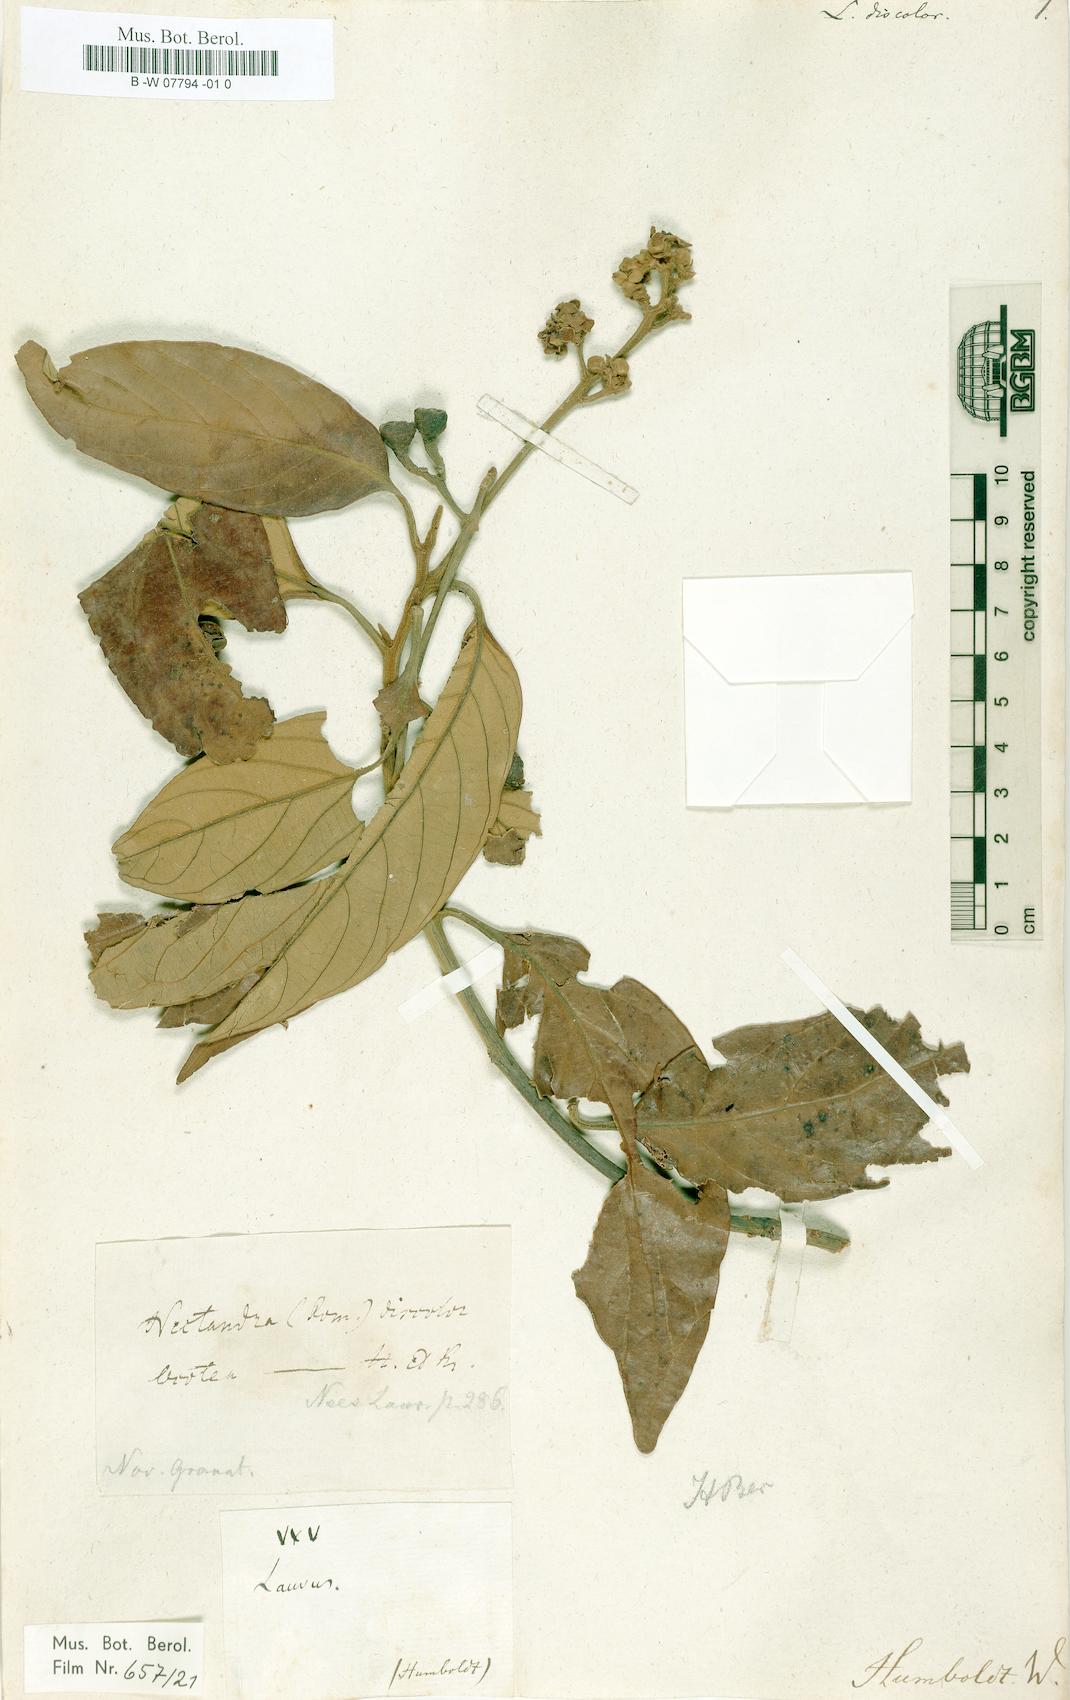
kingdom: Plantae
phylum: Tracheophyta
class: Magnoliopsida
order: Laurales
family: Lauraceae
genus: Nectandra
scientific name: Nectandra discolor
